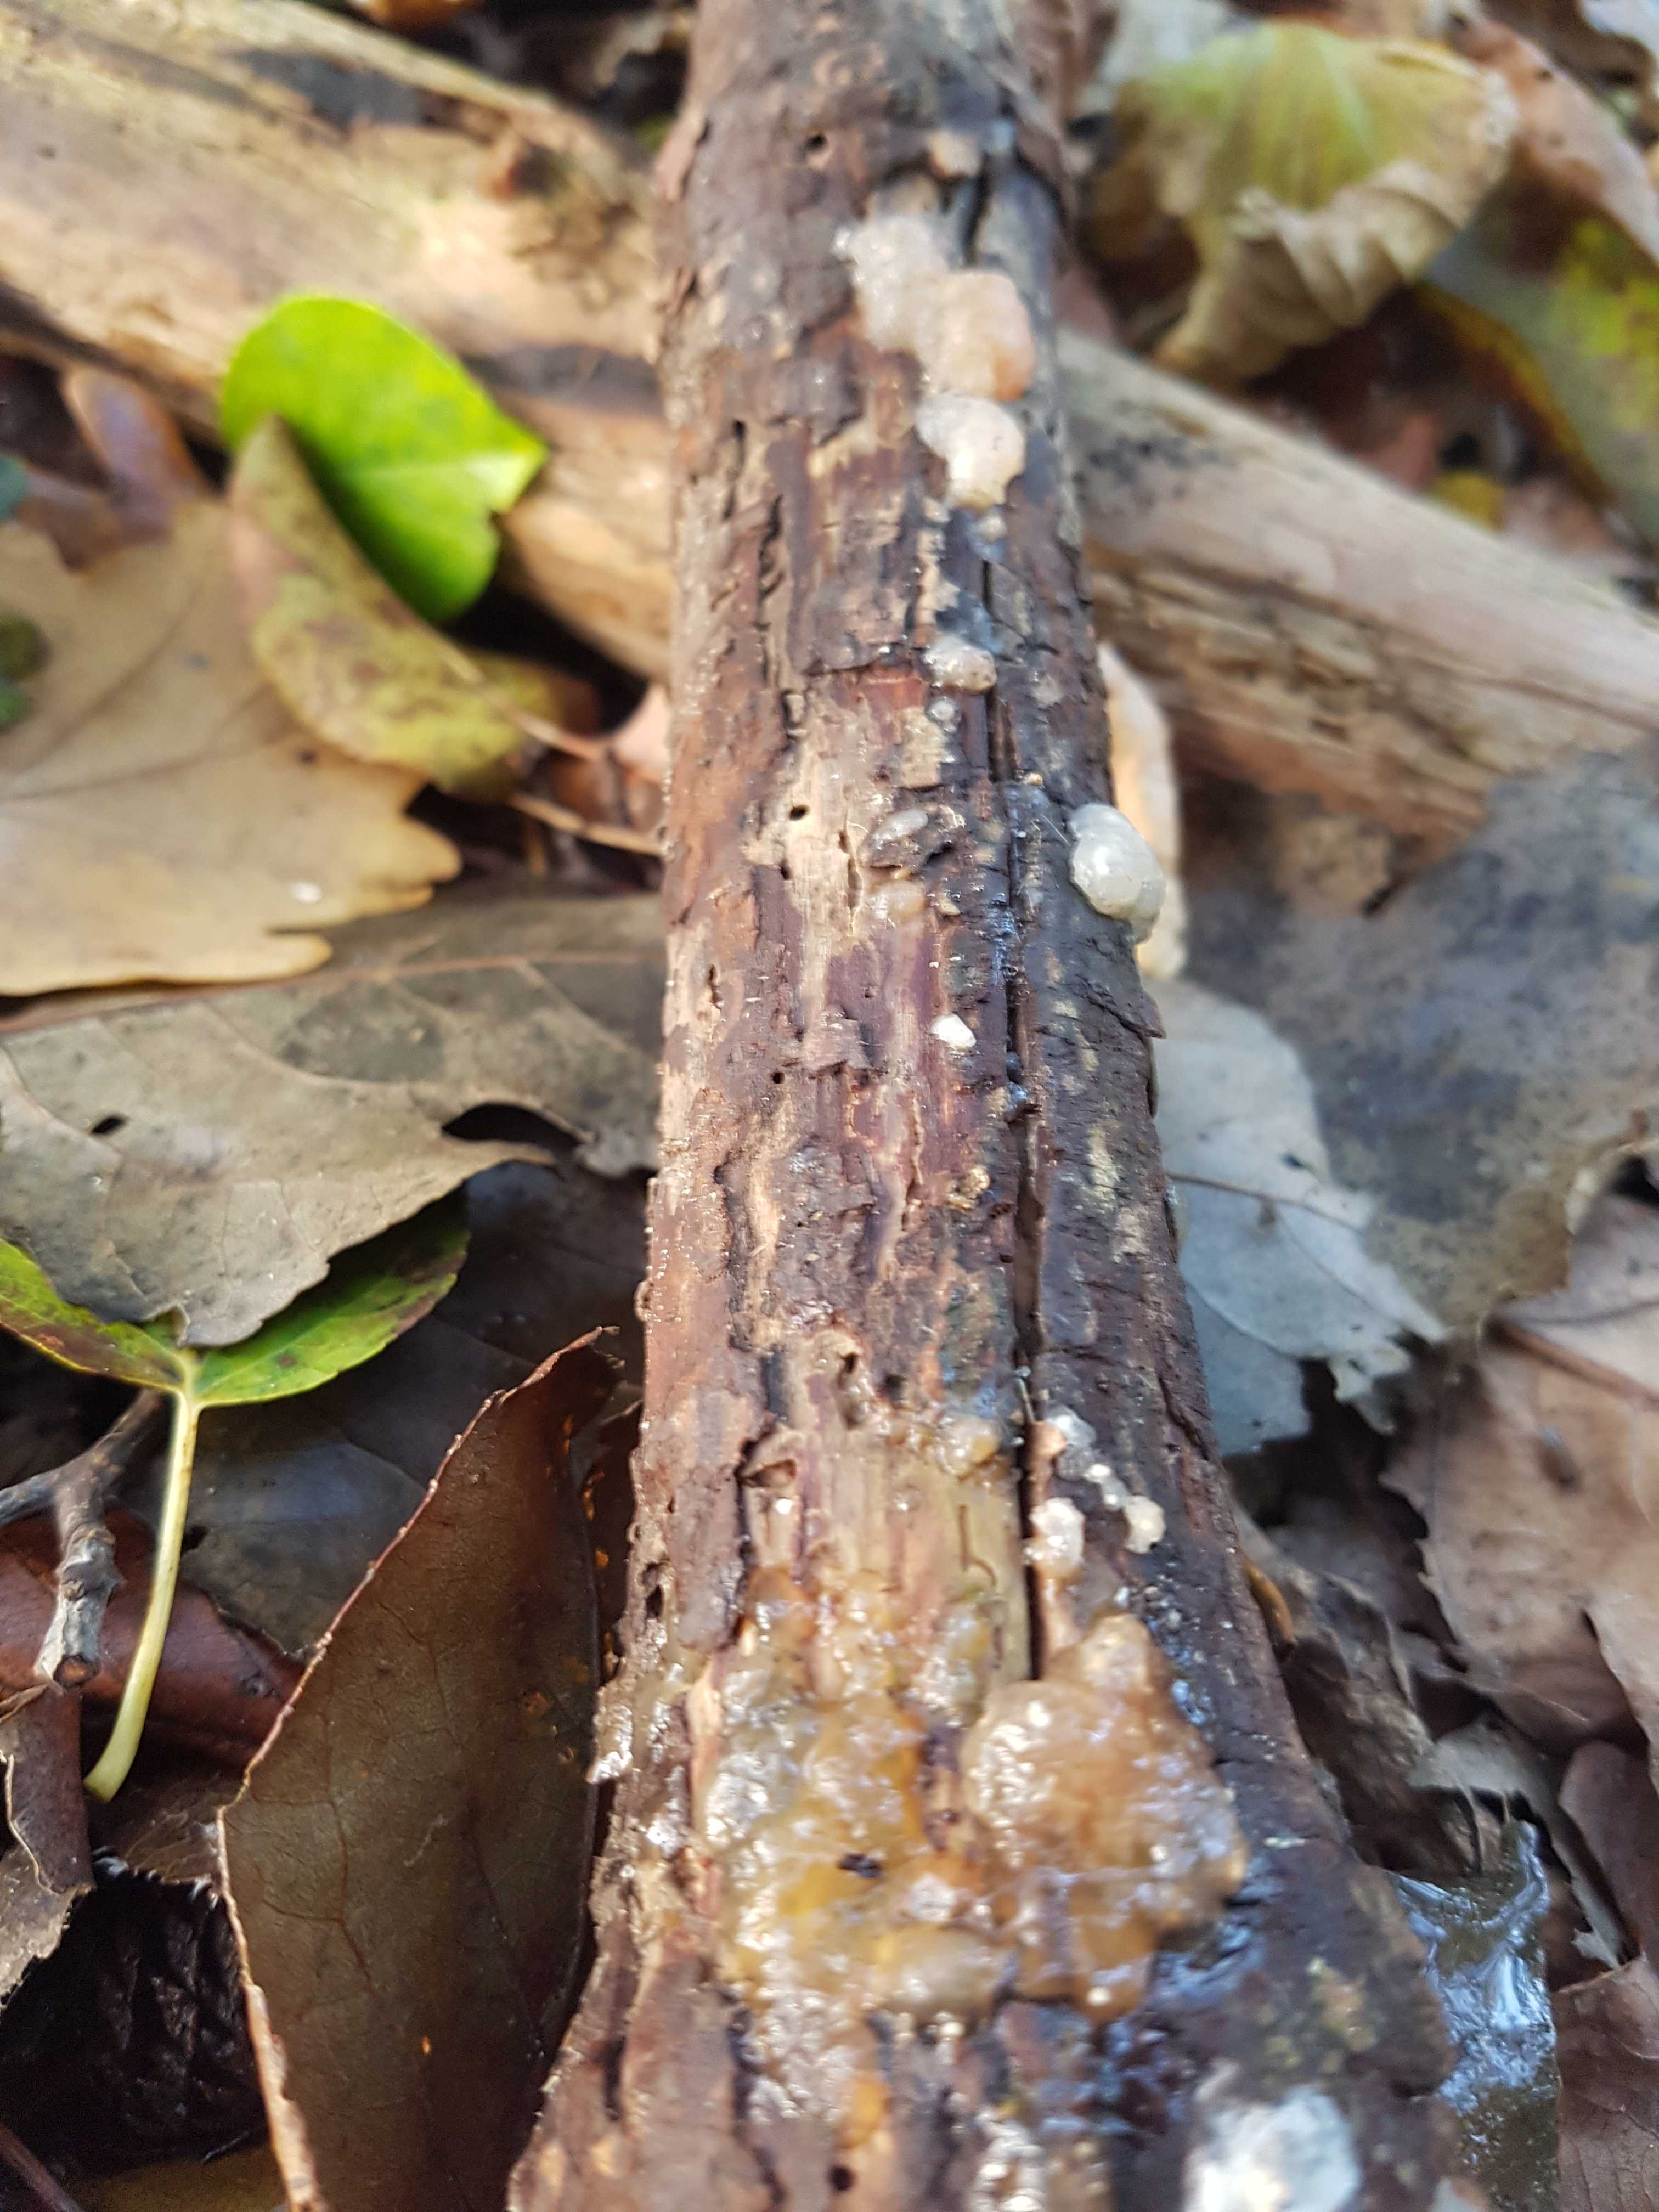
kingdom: Fungi
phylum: Basidiomycota
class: Agaricomycetes
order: Auriculariales
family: Hyaloriaceae
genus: Myxarium
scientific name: Myxarium
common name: bævretop
